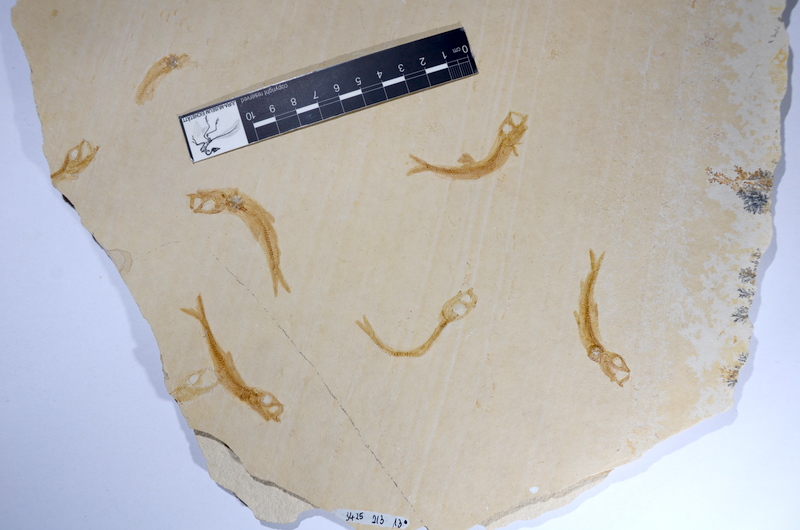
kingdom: Animalia
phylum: Chordata
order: Salmoniformes
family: Orthogonikleithridae
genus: Leptolepides
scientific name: Leptolepides sprattiformis
